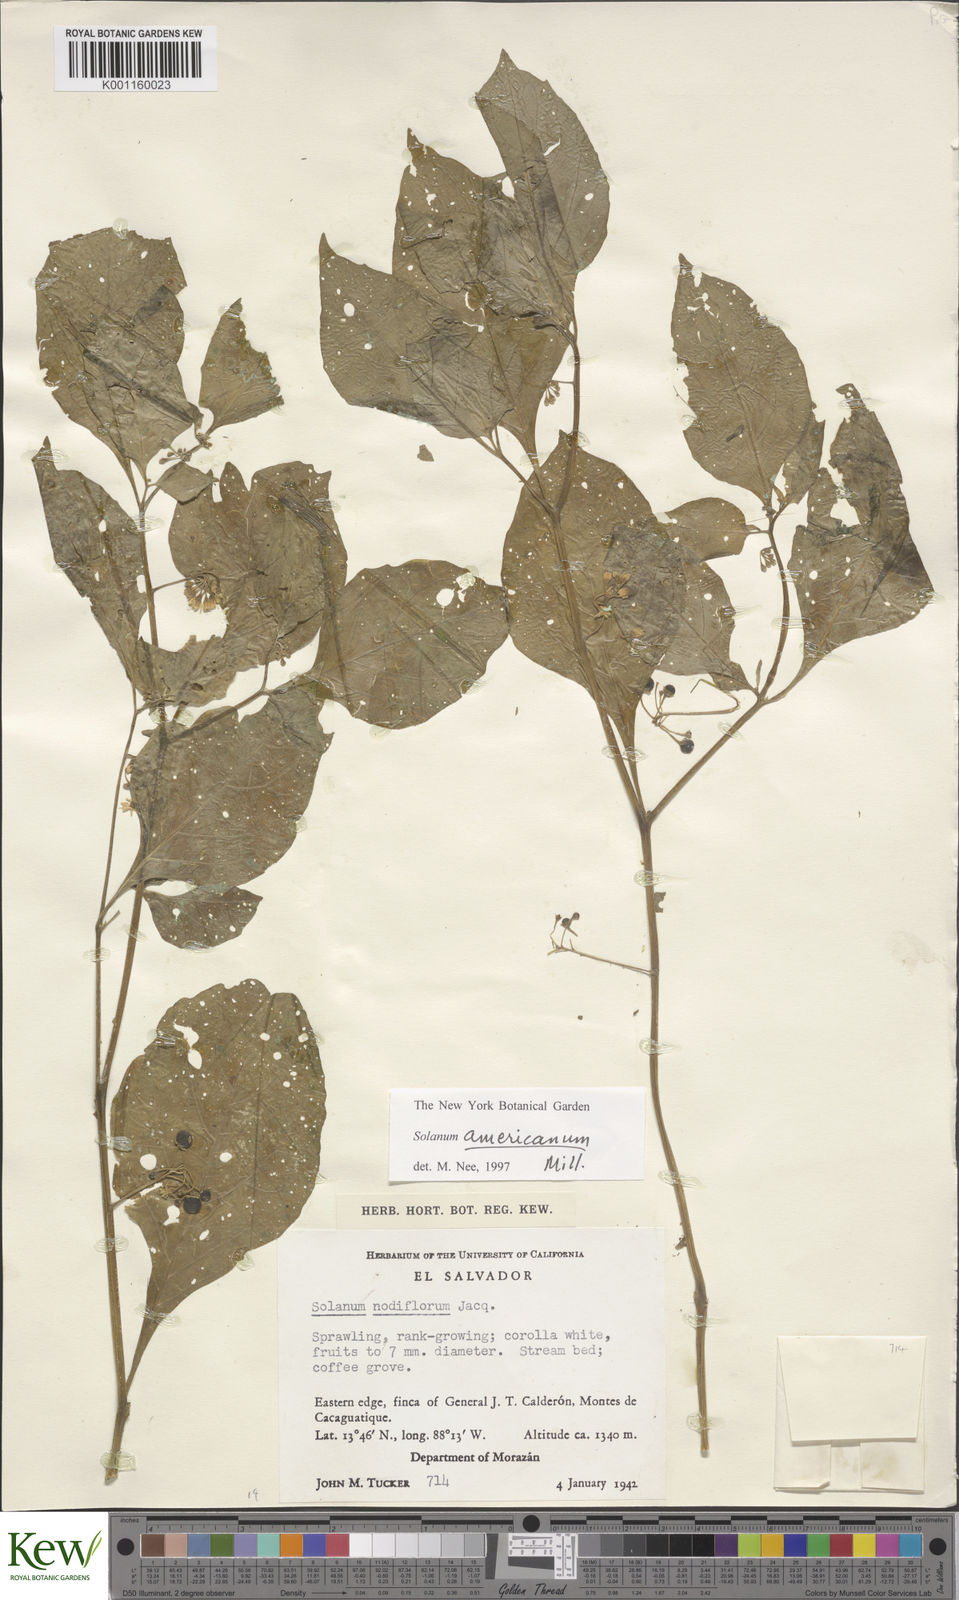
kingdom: Plantae
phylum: Tracheophyta
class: Magnoliopsida
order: Solanales
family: Solanaceae
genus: Solanum
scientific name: Solanum americanum
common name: American black nightshade
